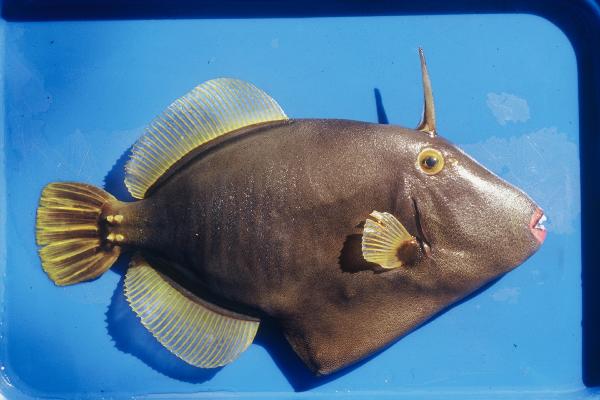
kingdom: Animalia
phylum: Chordata
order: Tetraodontiformes
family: Monacanthidae
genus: Cantherhines
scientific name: Cantherhines dumerilii
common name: Barred filefish
